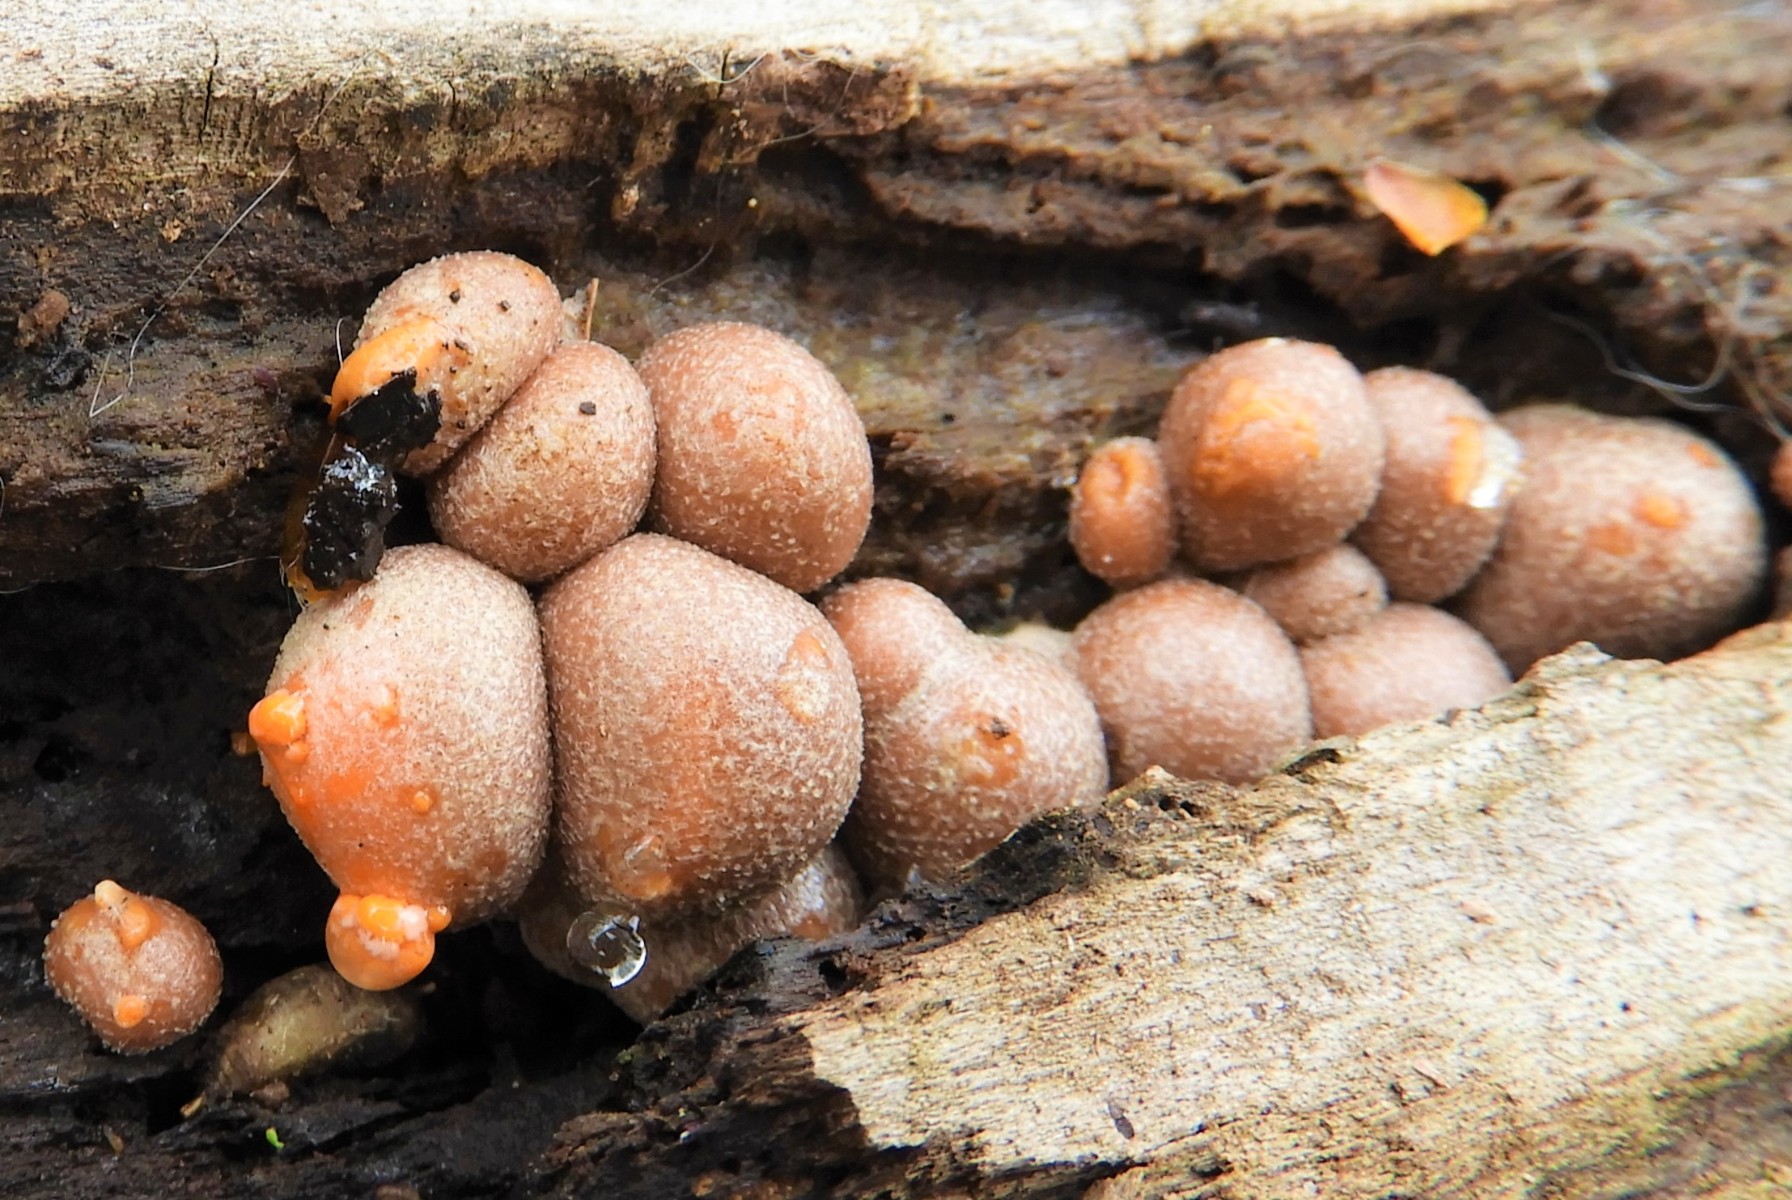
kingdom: Protozoa
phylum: Mycetozoa
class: Myxomycetes
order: Cribrariales
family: Tubiferaceae
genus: Lycogala
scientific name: Lycogala epidendrum
